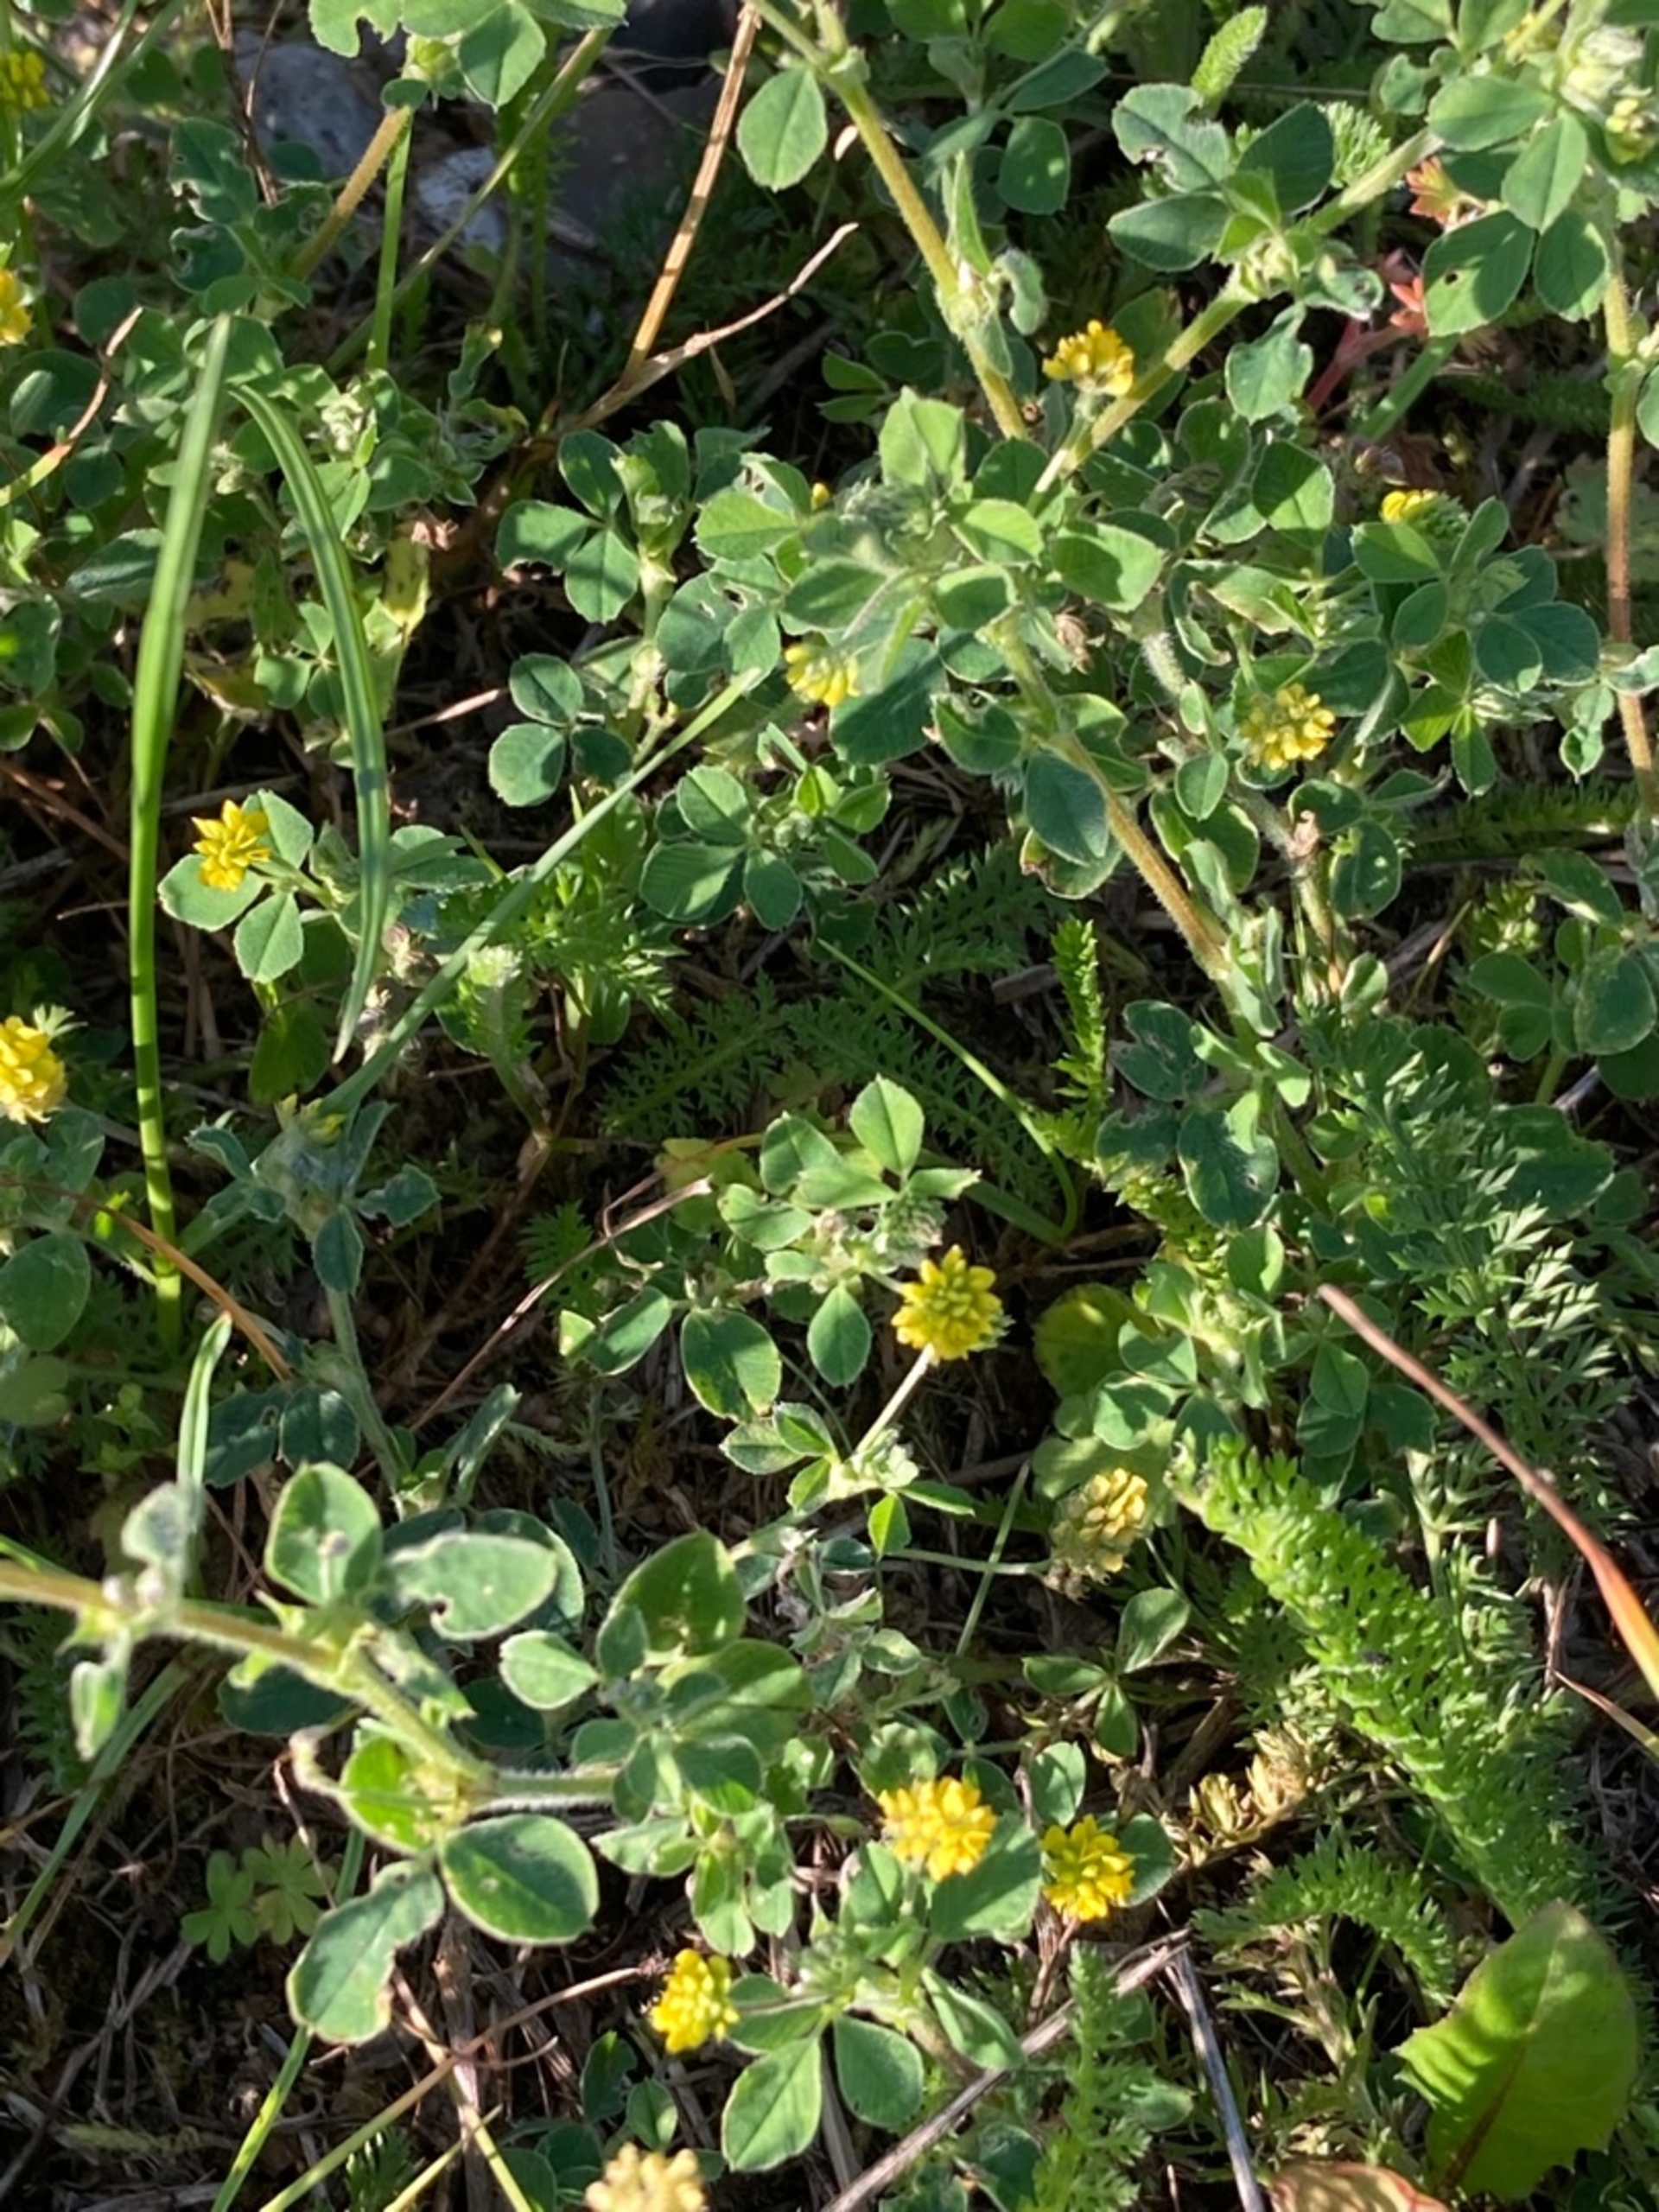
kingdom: Plantae
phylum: Tracheophyta
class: Magnoliopsida
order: Fabales
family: Fabaceae
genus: Medicago
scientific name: Medicago lupulina
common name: Humle-sneglebælg
